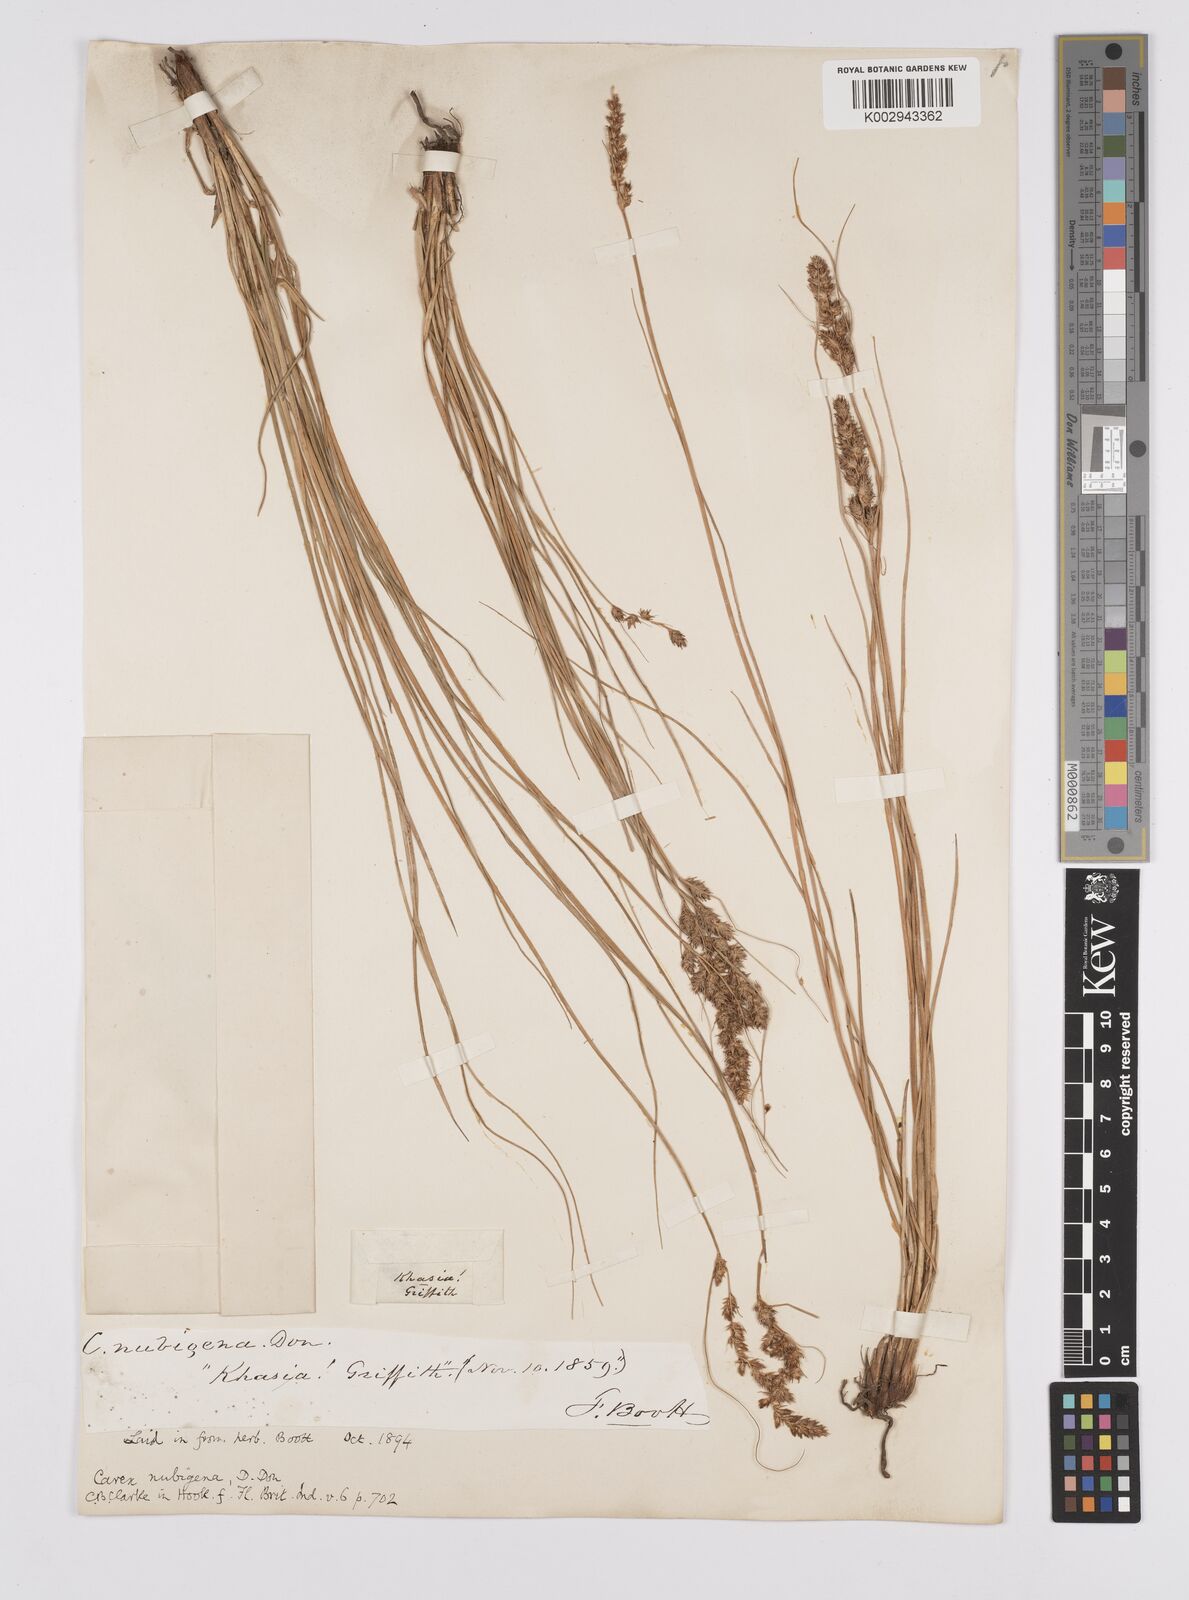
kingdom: Plantae
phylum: Tracheophyta
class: Liliopsida
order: Poales
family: Cyperaceae
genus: Carex
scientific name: Carex nubigena
